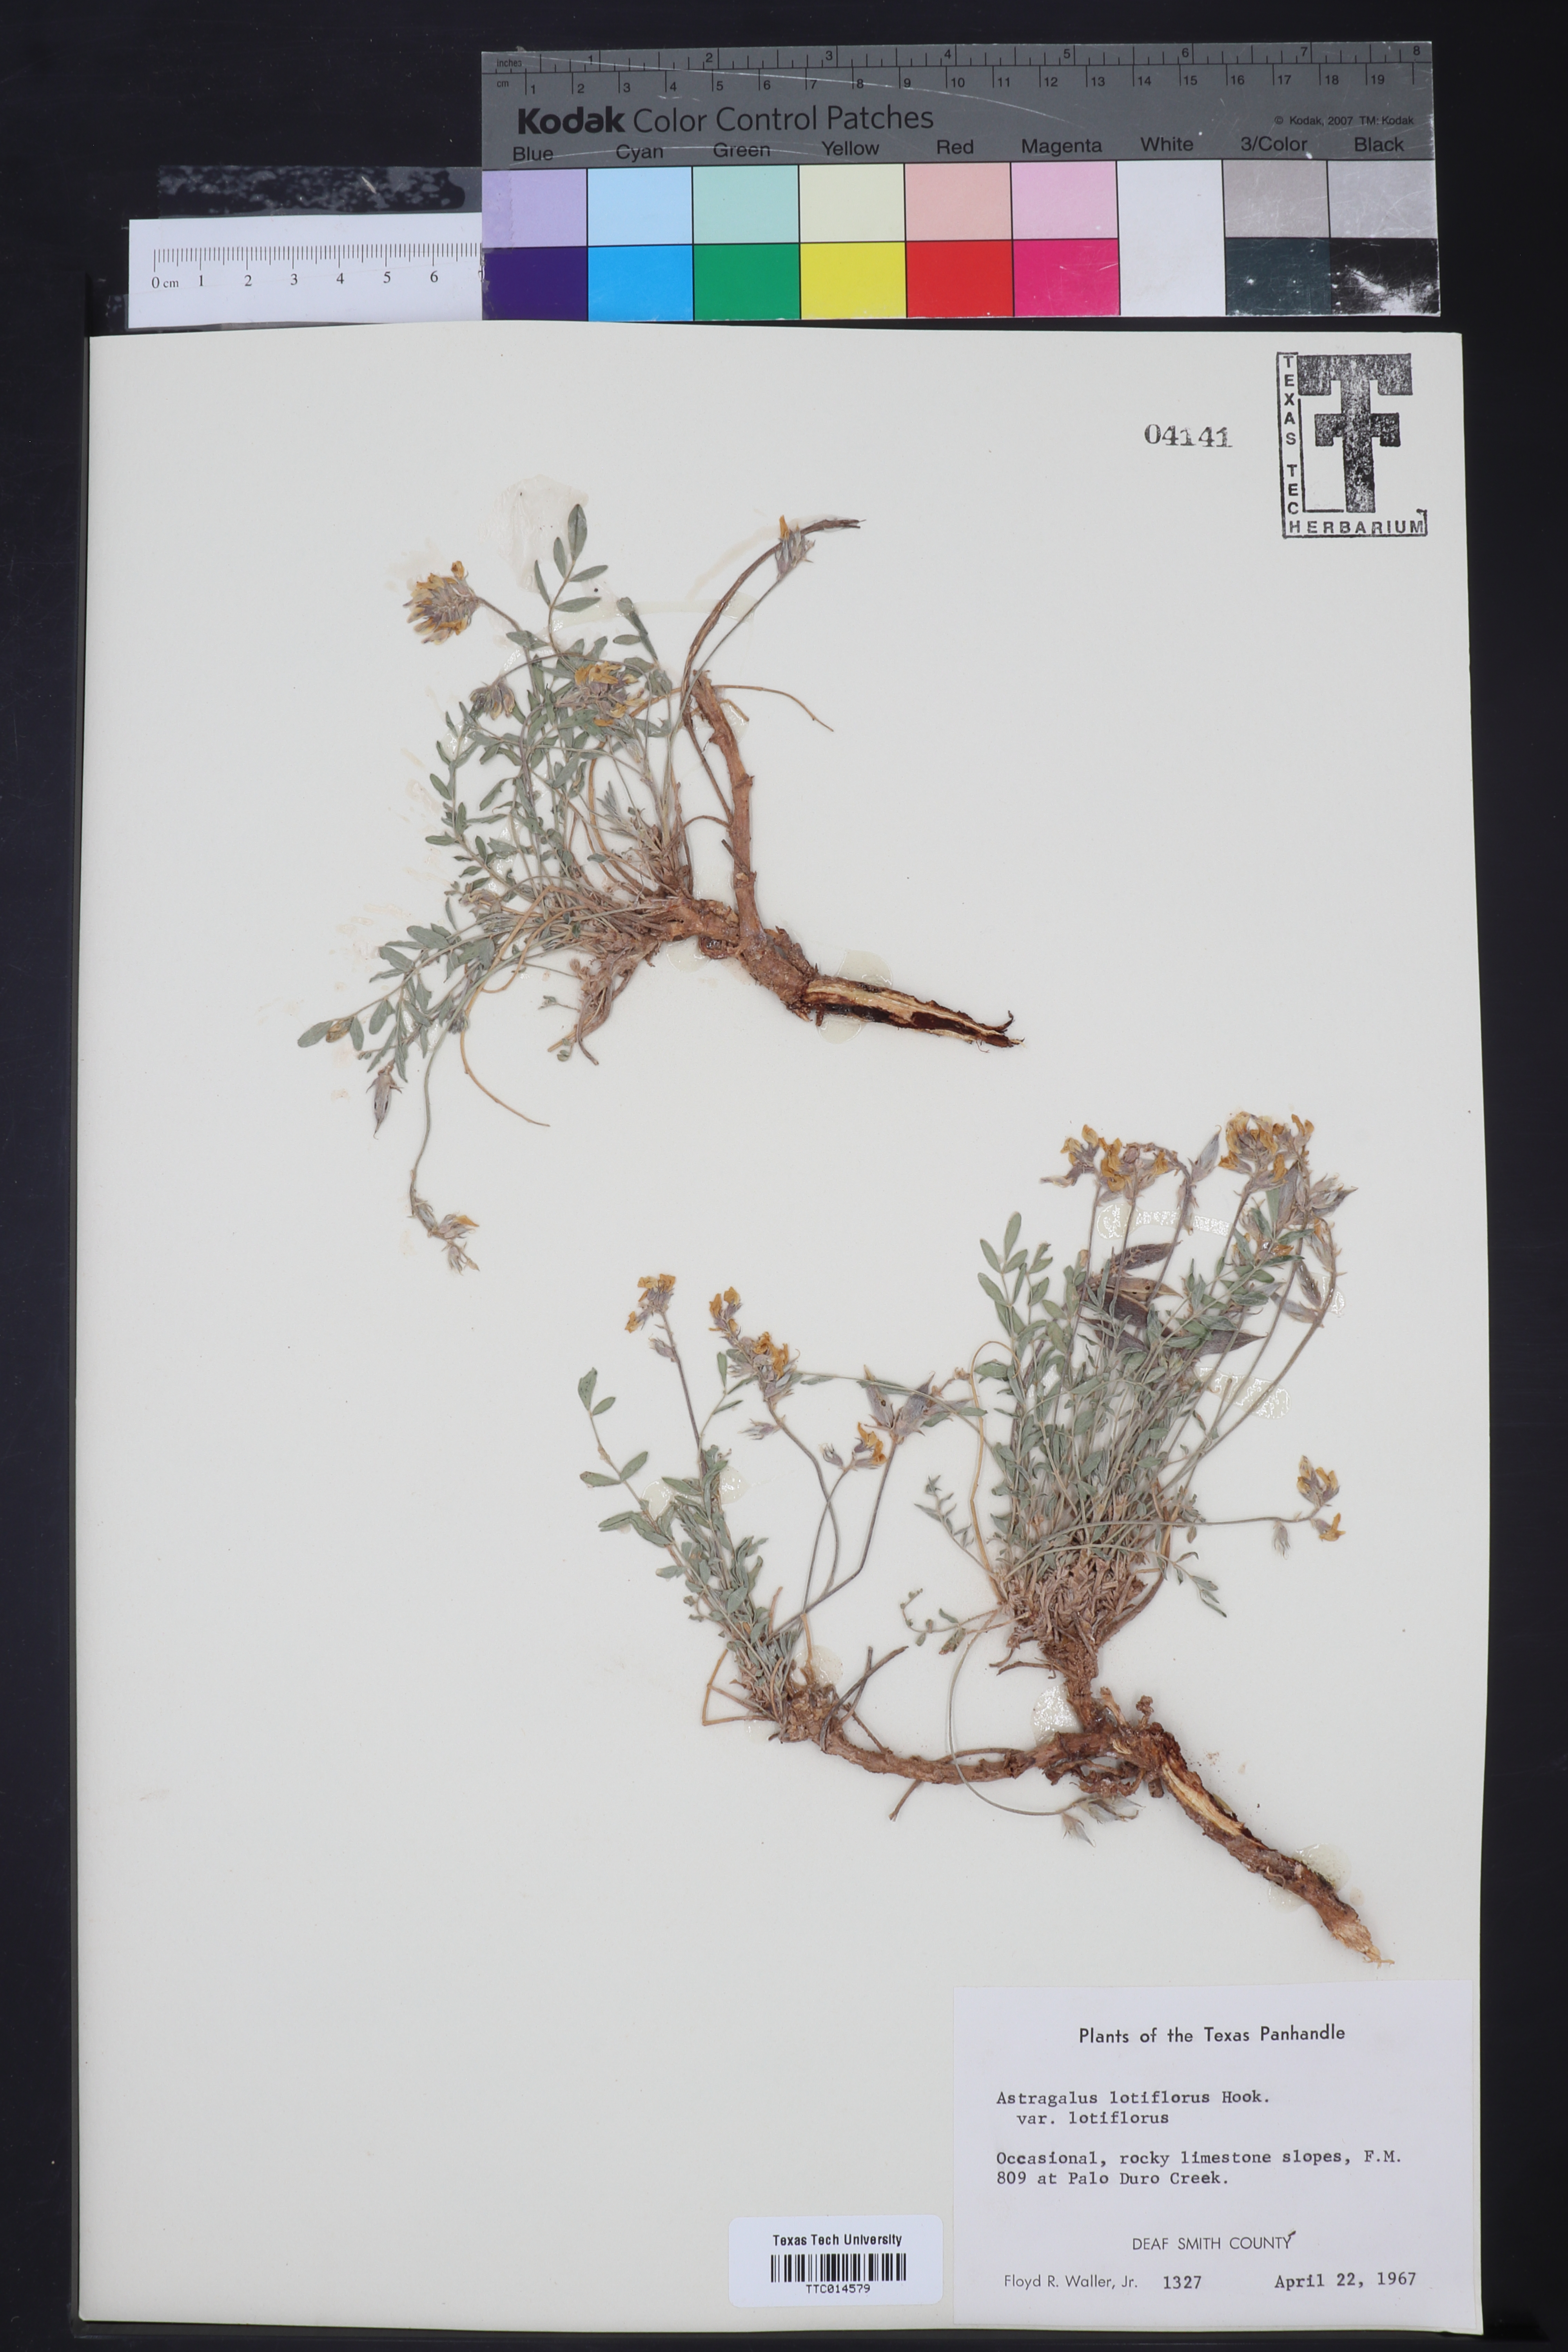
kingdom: Plantae
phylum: Tracheophyta
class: Magnoliopsida
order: Fabales
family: Fabaceae
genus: Astragalus
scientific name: Astragalus lotiflorus
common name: Lotus milk-vetch
